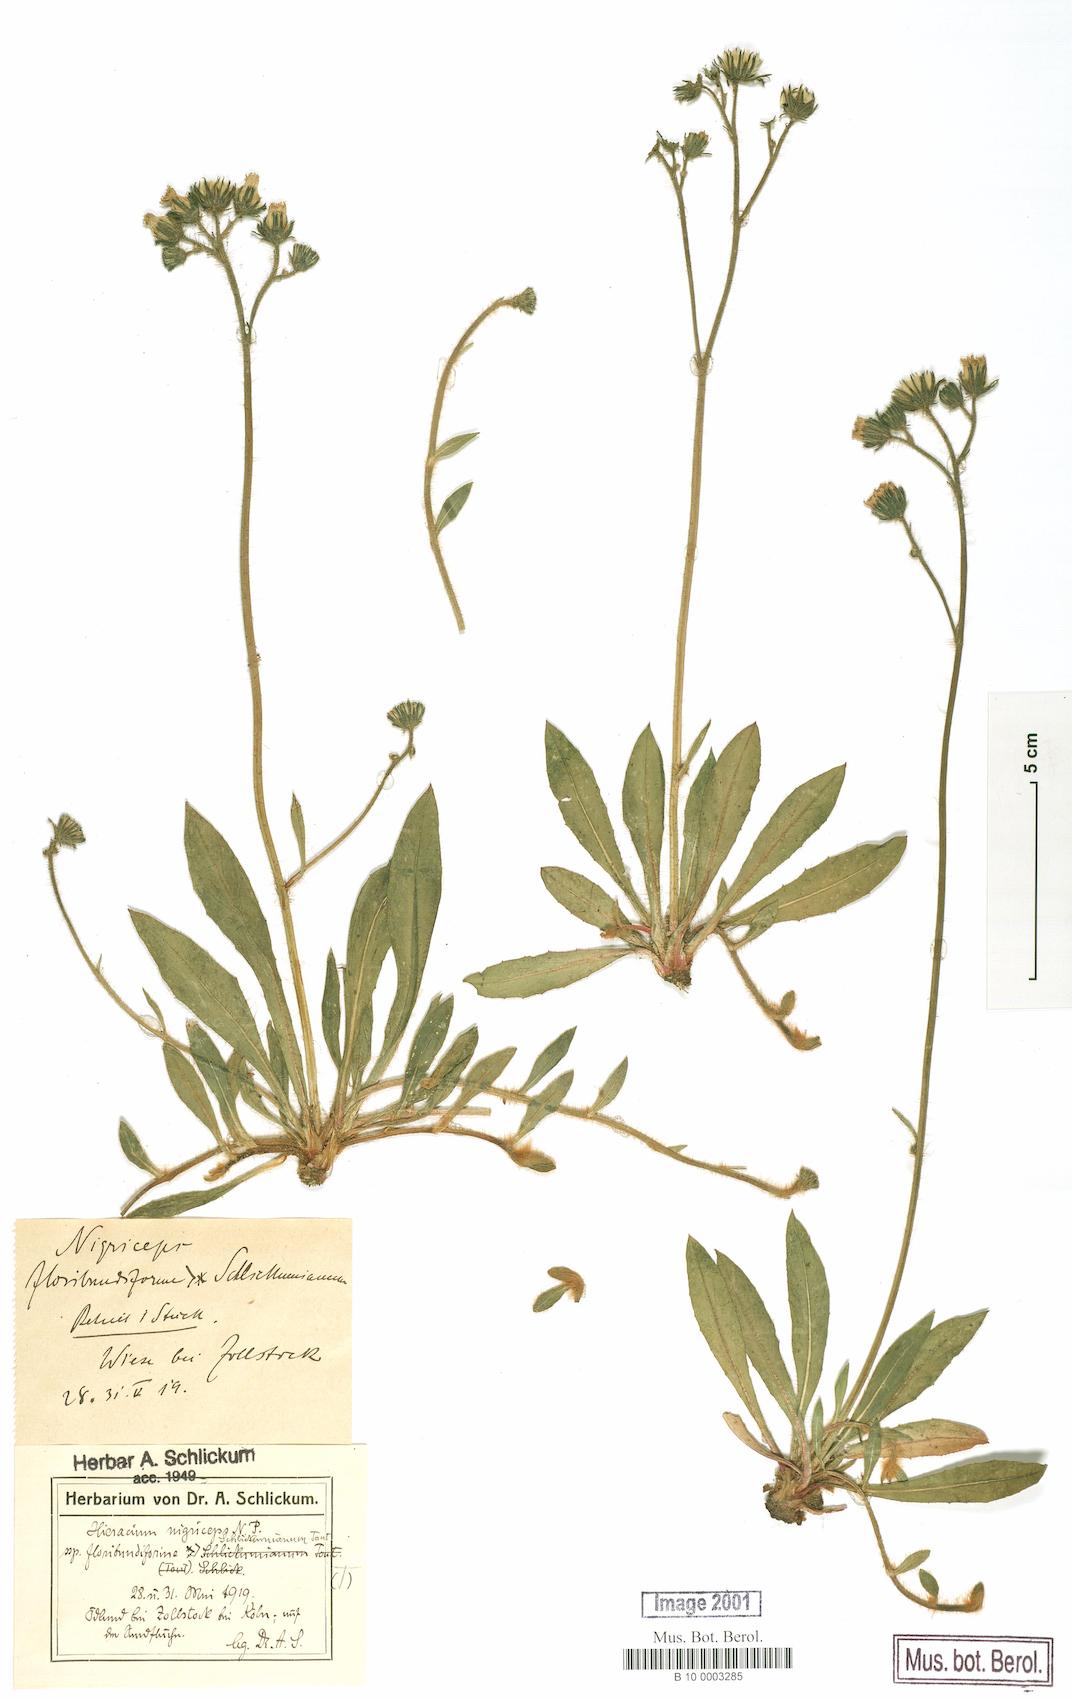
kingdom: Plantae
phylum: Tracheophyta
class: Magnoliopsida
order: Asterales
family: Asteraceae
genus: Pilosella
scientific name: Pilosella iserana
